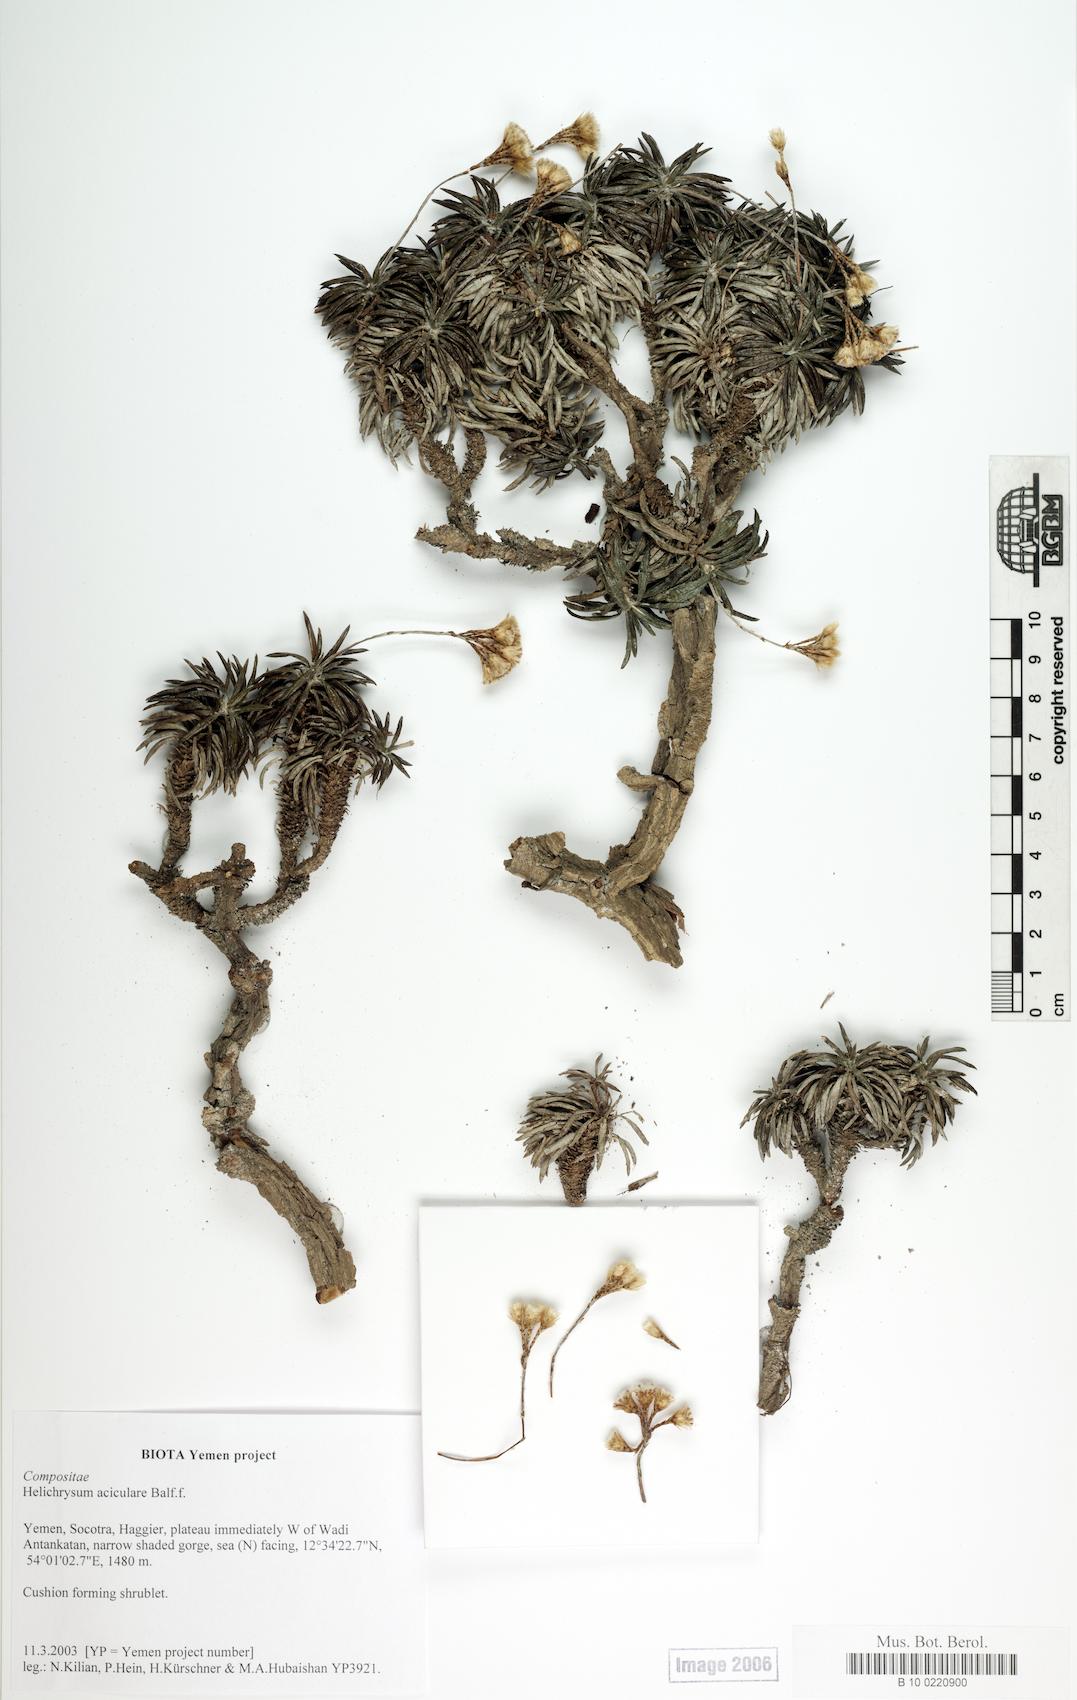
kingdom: Plantae
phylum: Tracheophyta
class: Magnoliopsida
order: Asterales
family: Asteraceae
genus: Libinhania
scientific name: Libinhania acicularis
